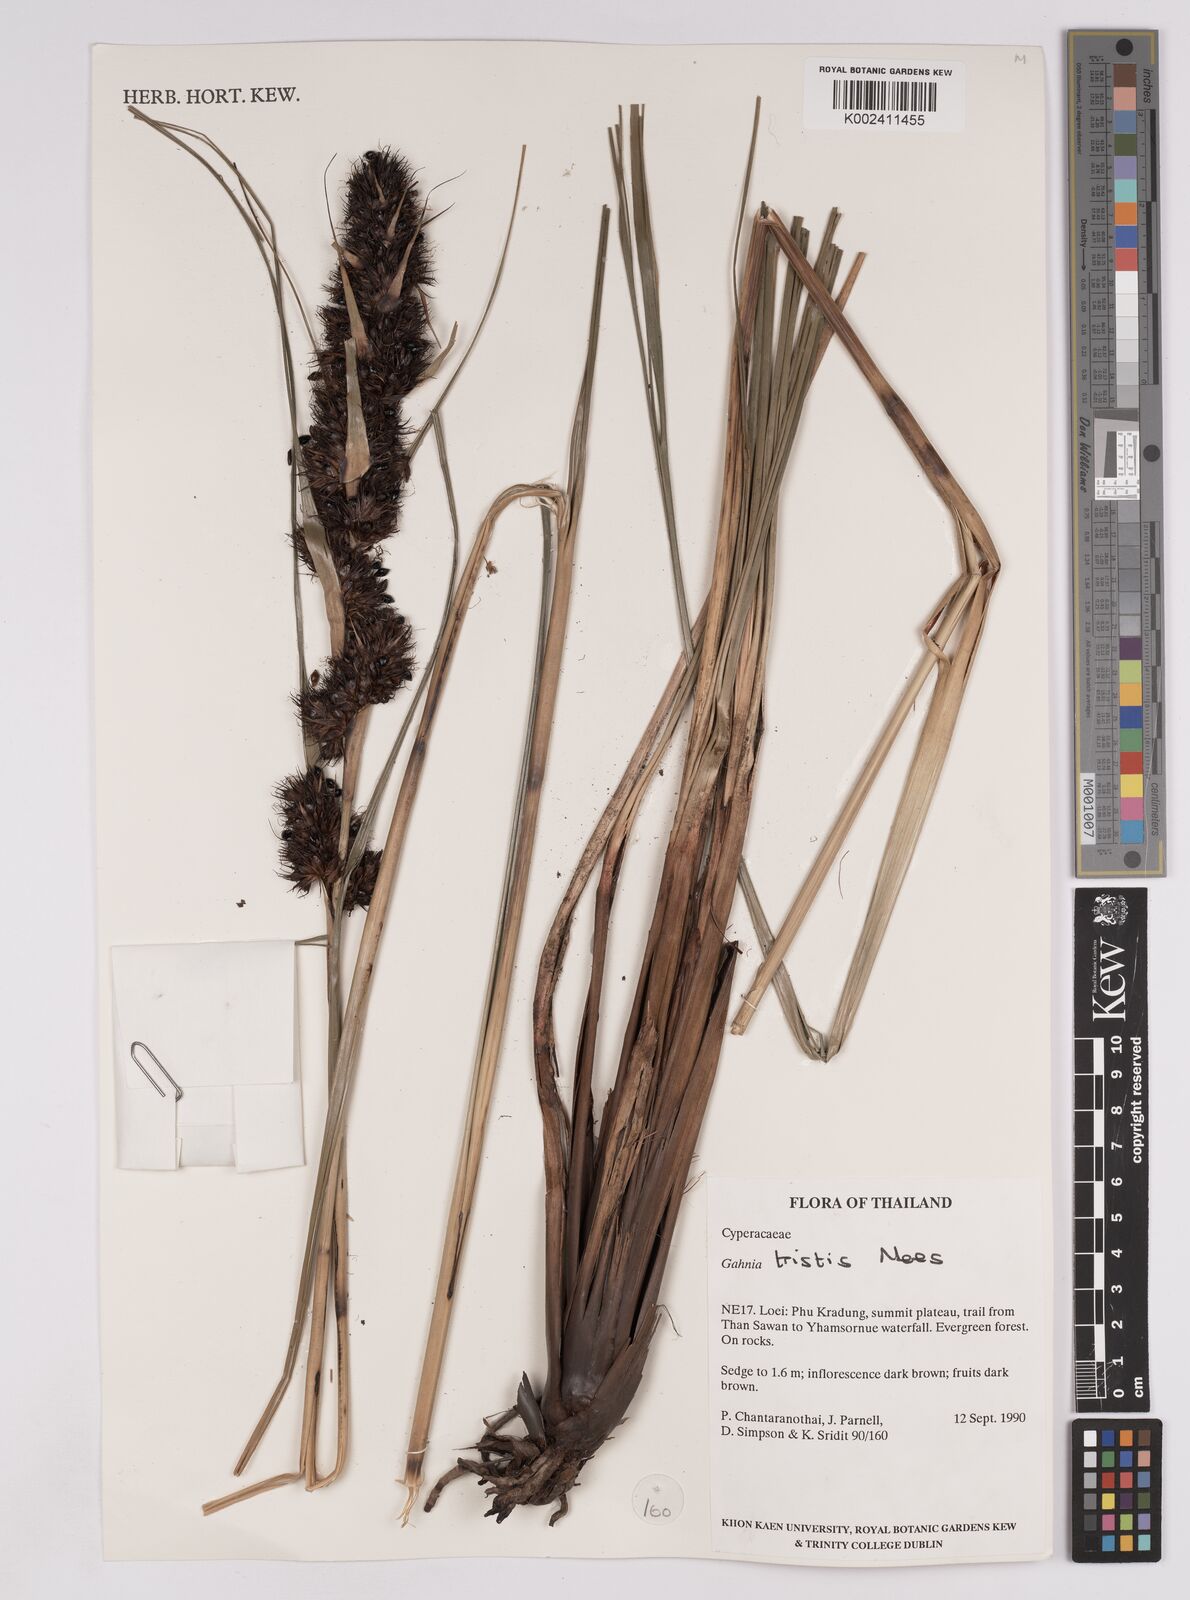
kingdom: Plantae
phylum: Tracheophyta
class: Liliopsida
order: Poales
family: Cyperaceae
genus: Gahnia
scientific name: Gahnia tristis
